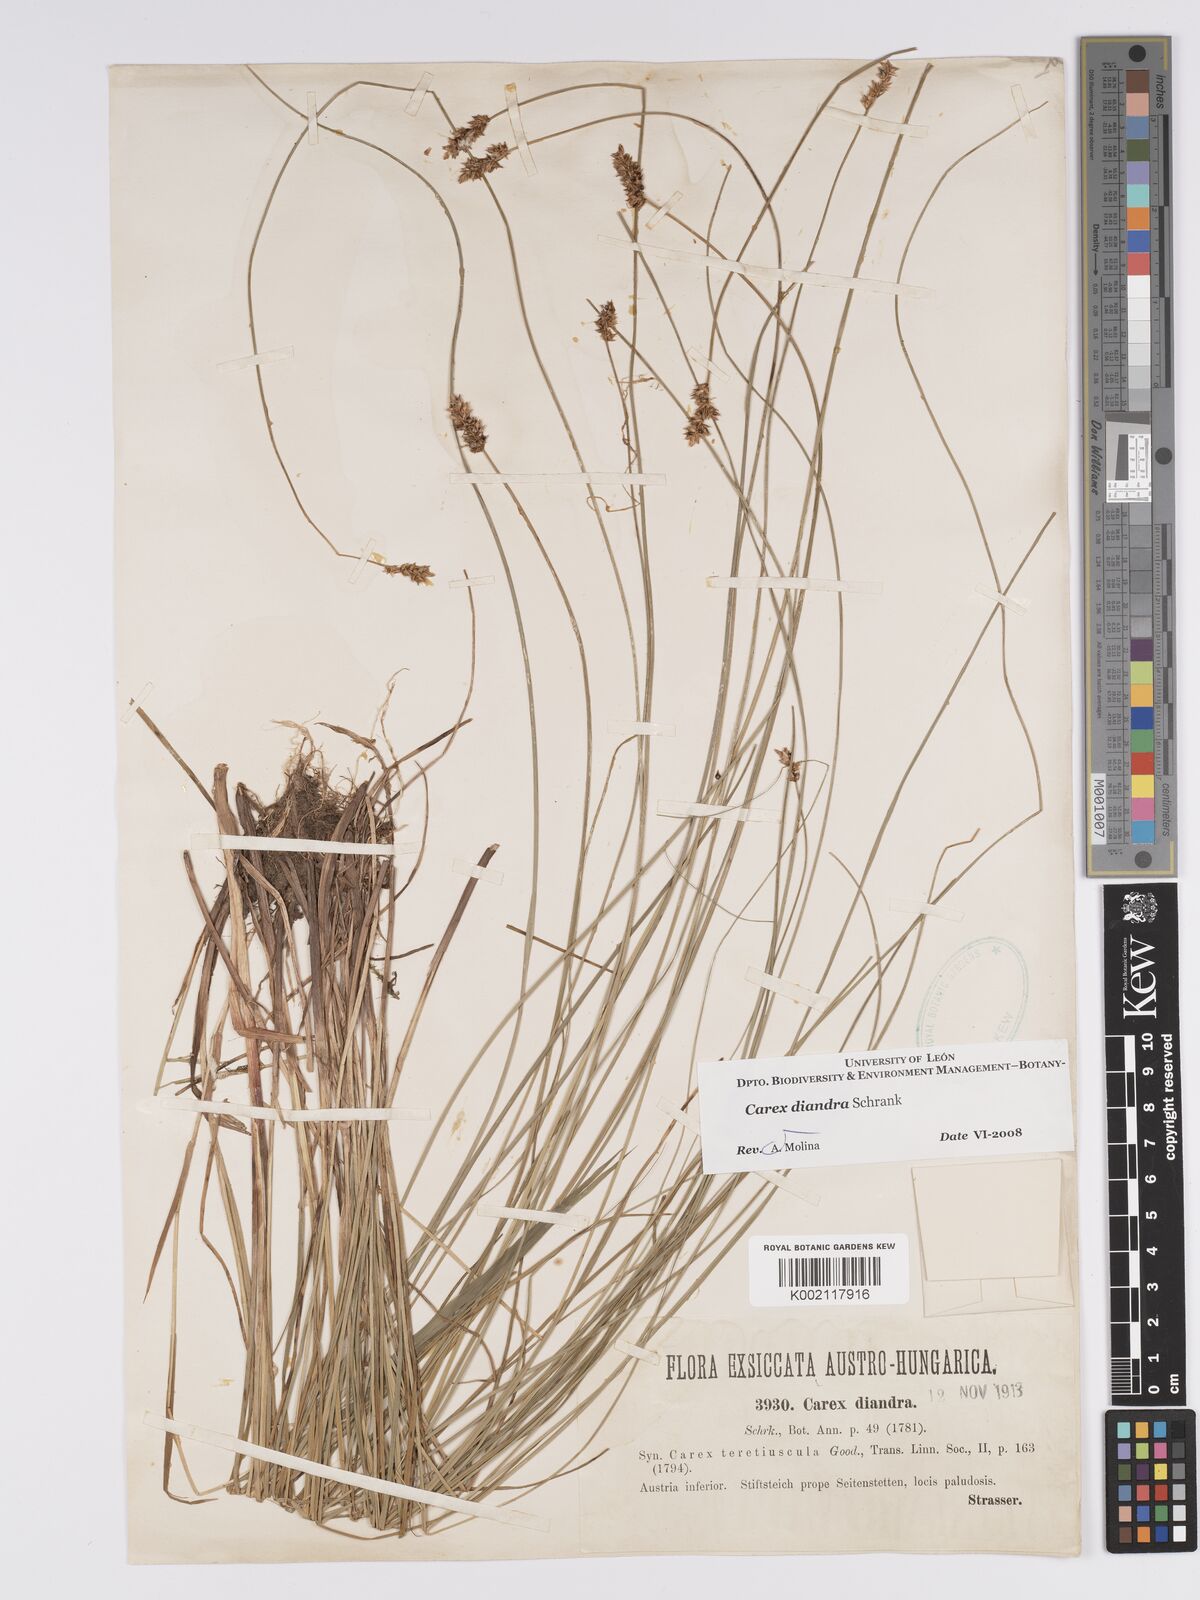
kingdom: Plantae
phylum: Tracheophyta
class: Liliopsida
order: Poales
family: Cyperaceae
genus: Carex
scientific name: Carex diandra
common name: Lesser tussock-sedge
